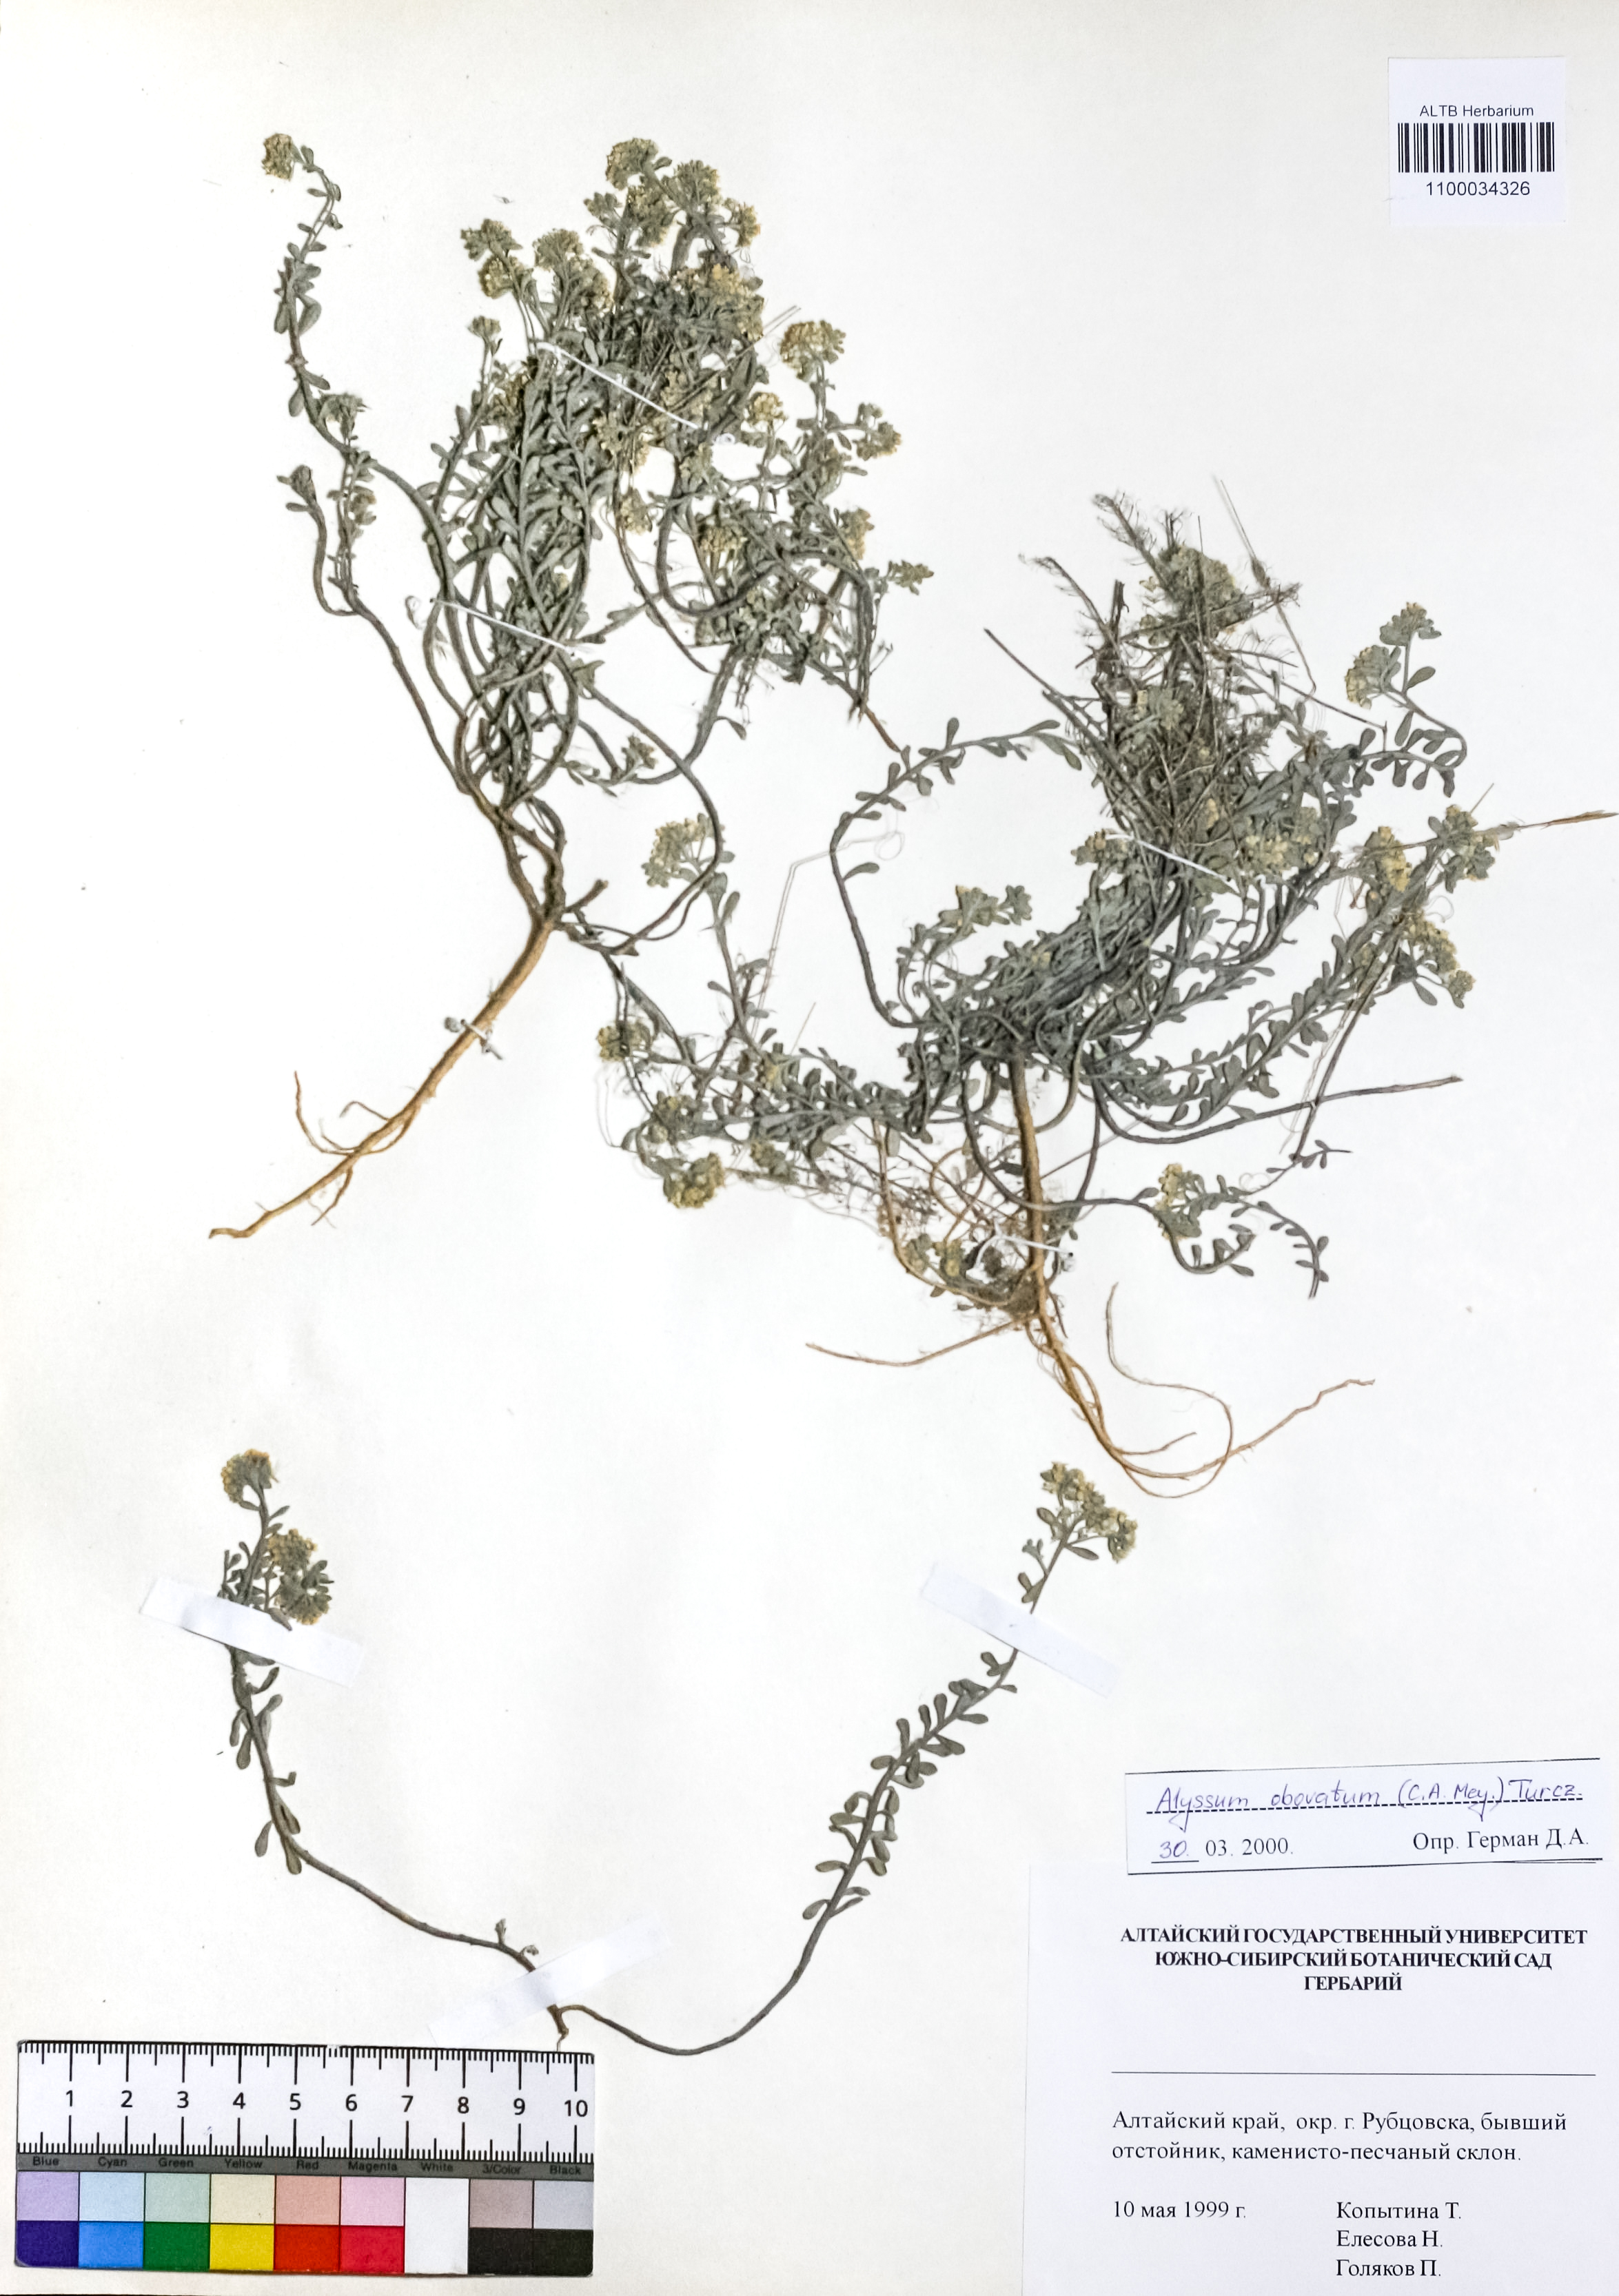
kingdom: Plantae
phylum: Tracheophyta
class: Magnoliopsida
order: Brassicales
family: Brassicaceae
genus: Odontarrhena
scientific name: Odontarrhena obovata
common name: American alyssum
